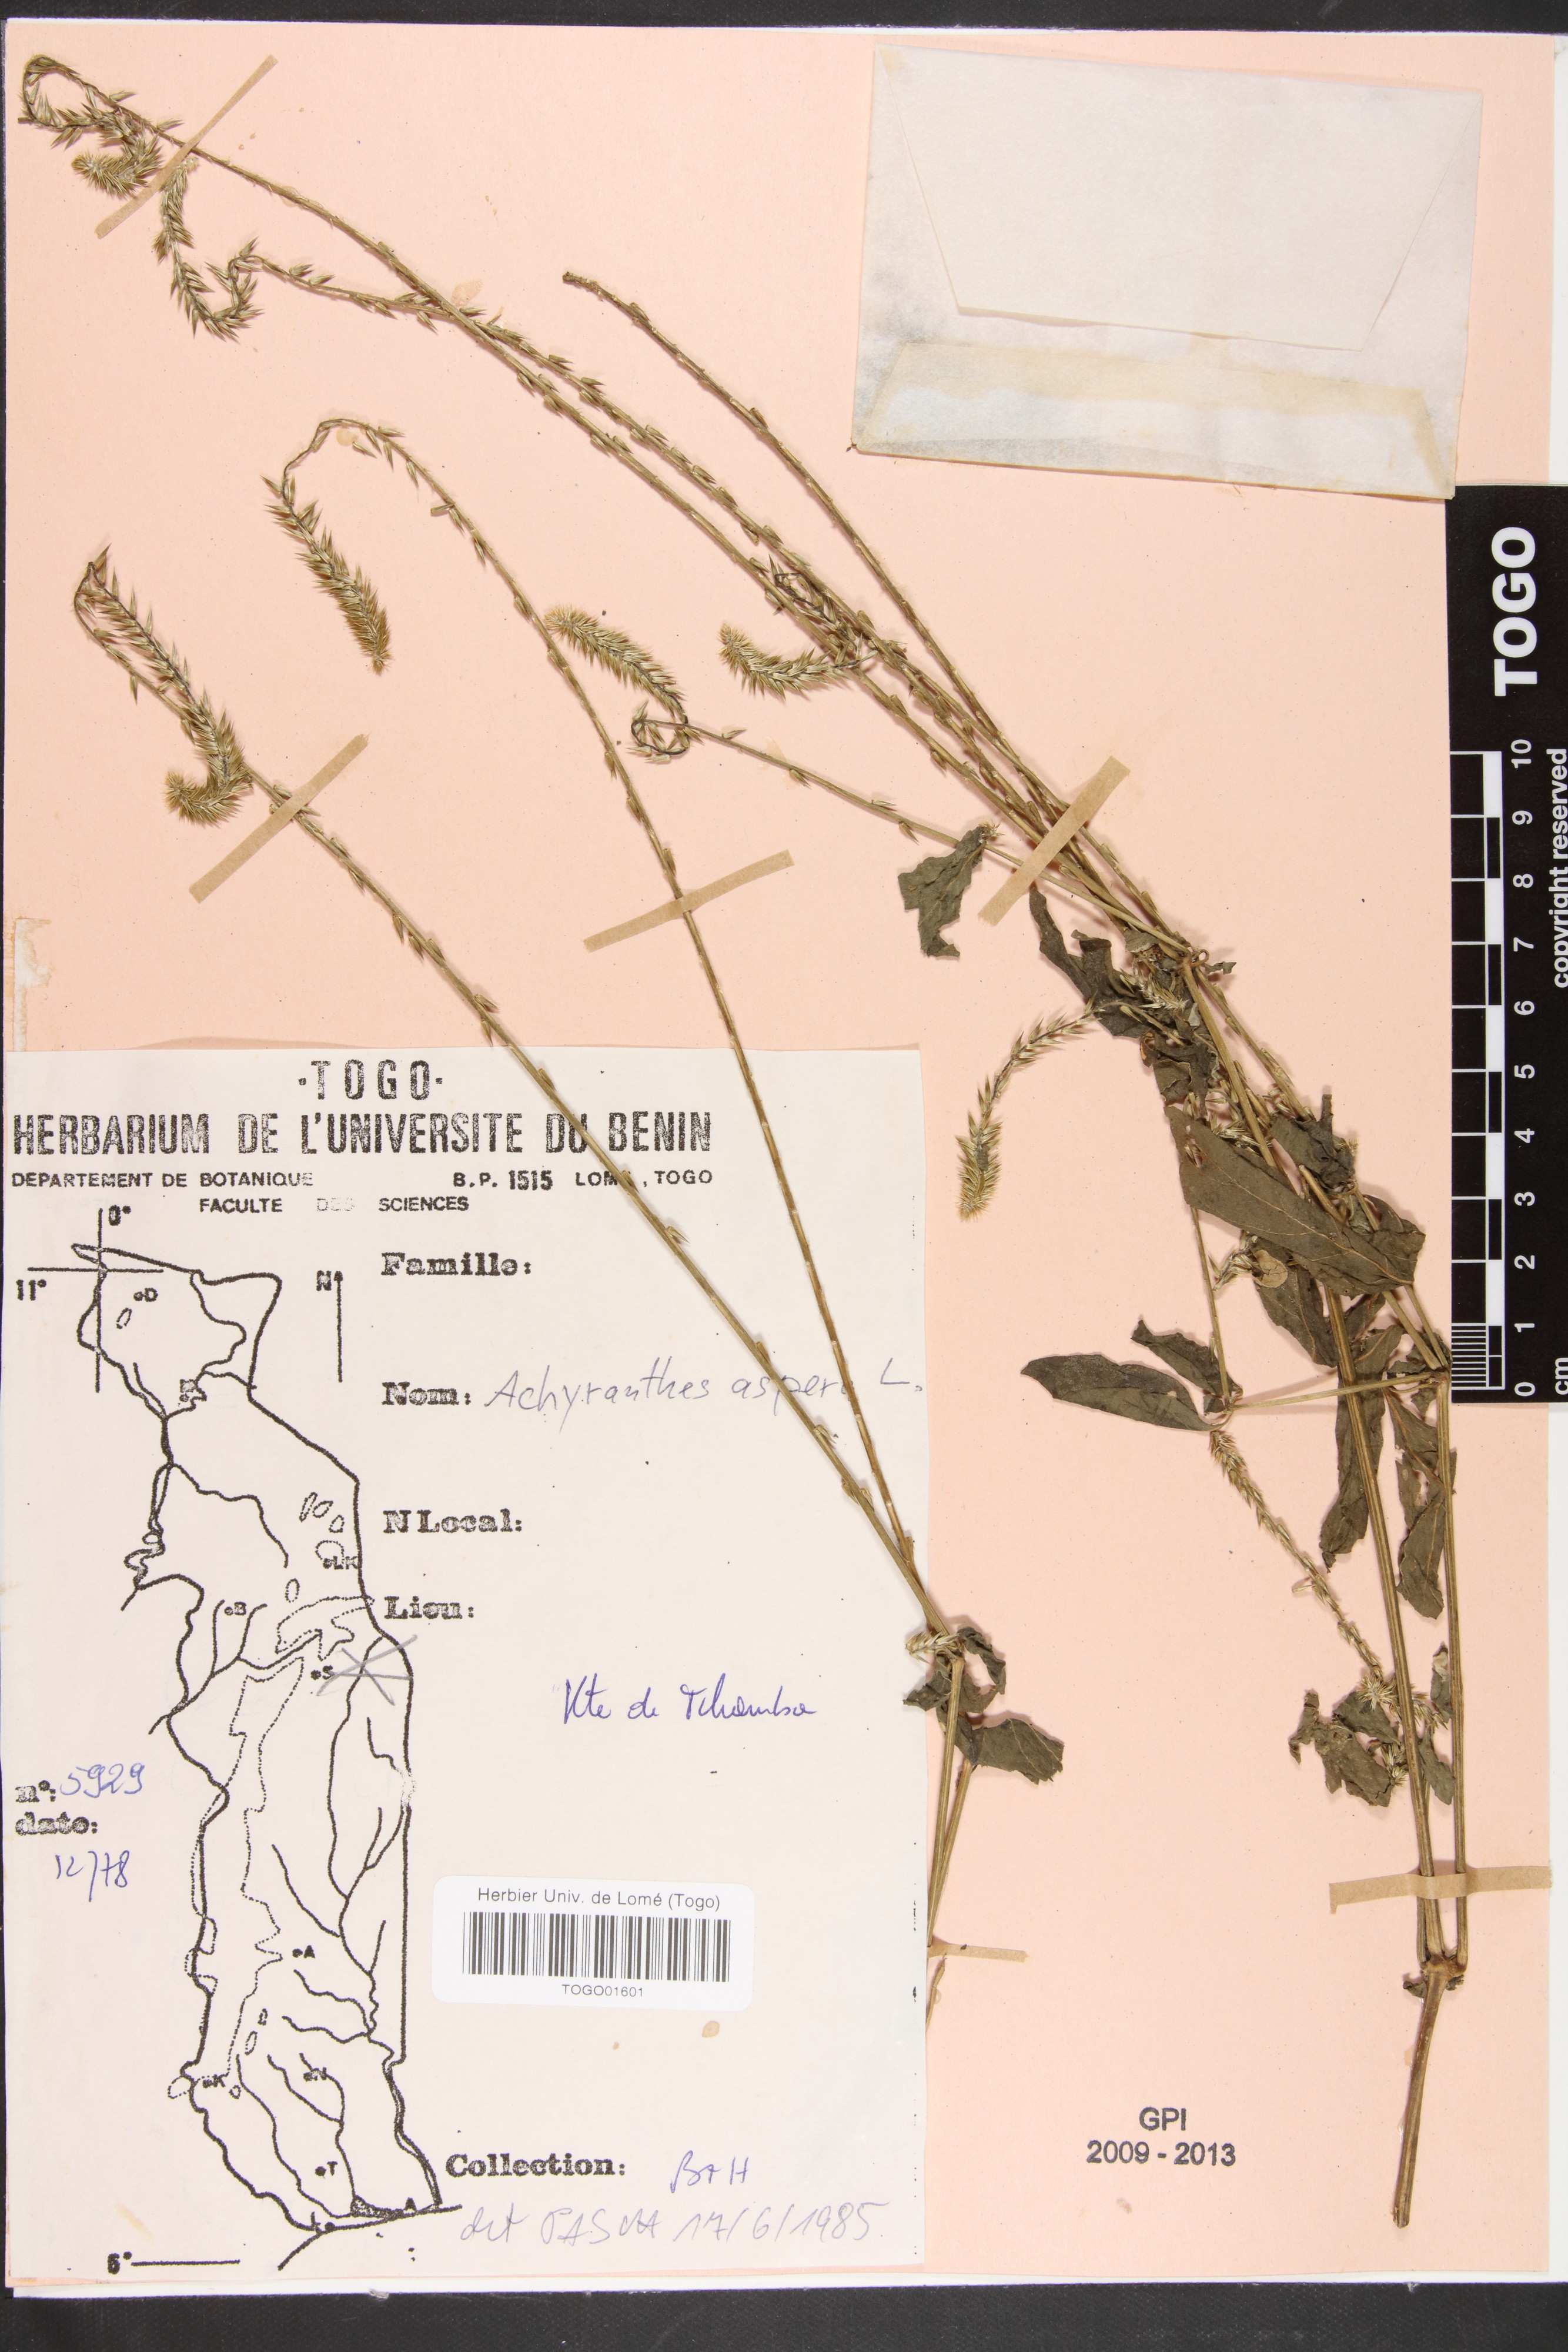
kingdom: Plantae
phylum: Tracheophyta
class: Magnoliopsida
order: Caryophyllales
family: Amaranthaceae
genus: Achyranthes
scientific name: Achyranthes aspera
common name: Devil's horsewhip
